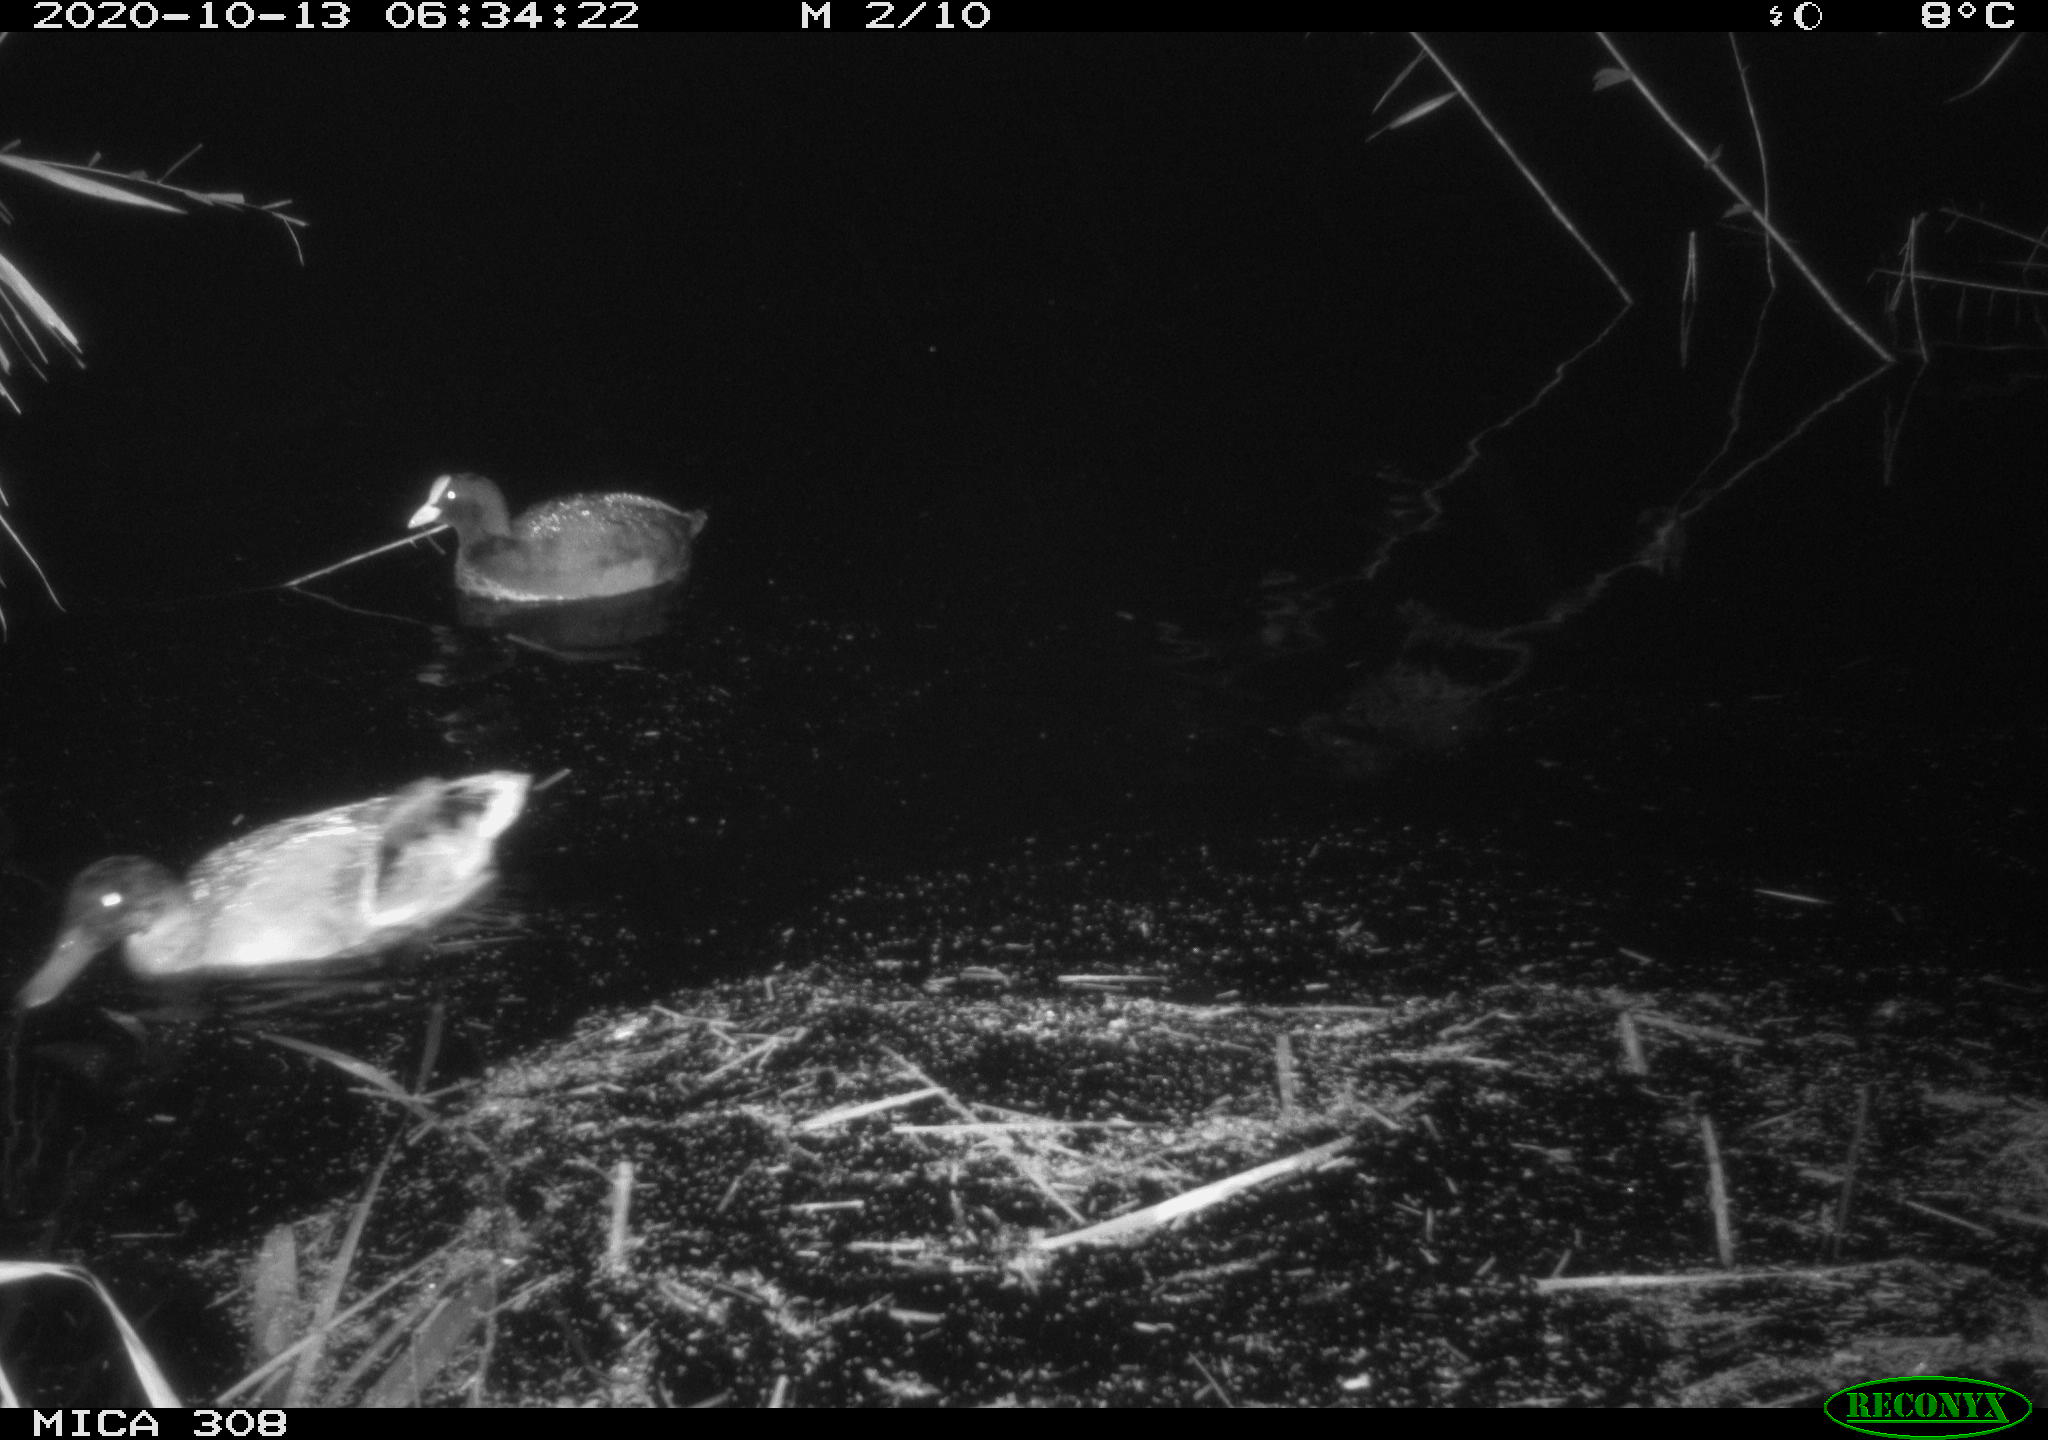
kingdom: Animalia
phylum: Chordata
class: Aves
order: Gruiformes
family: Rallidae
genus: Fulica
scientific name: Fulica atra
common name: Eurasian coot
